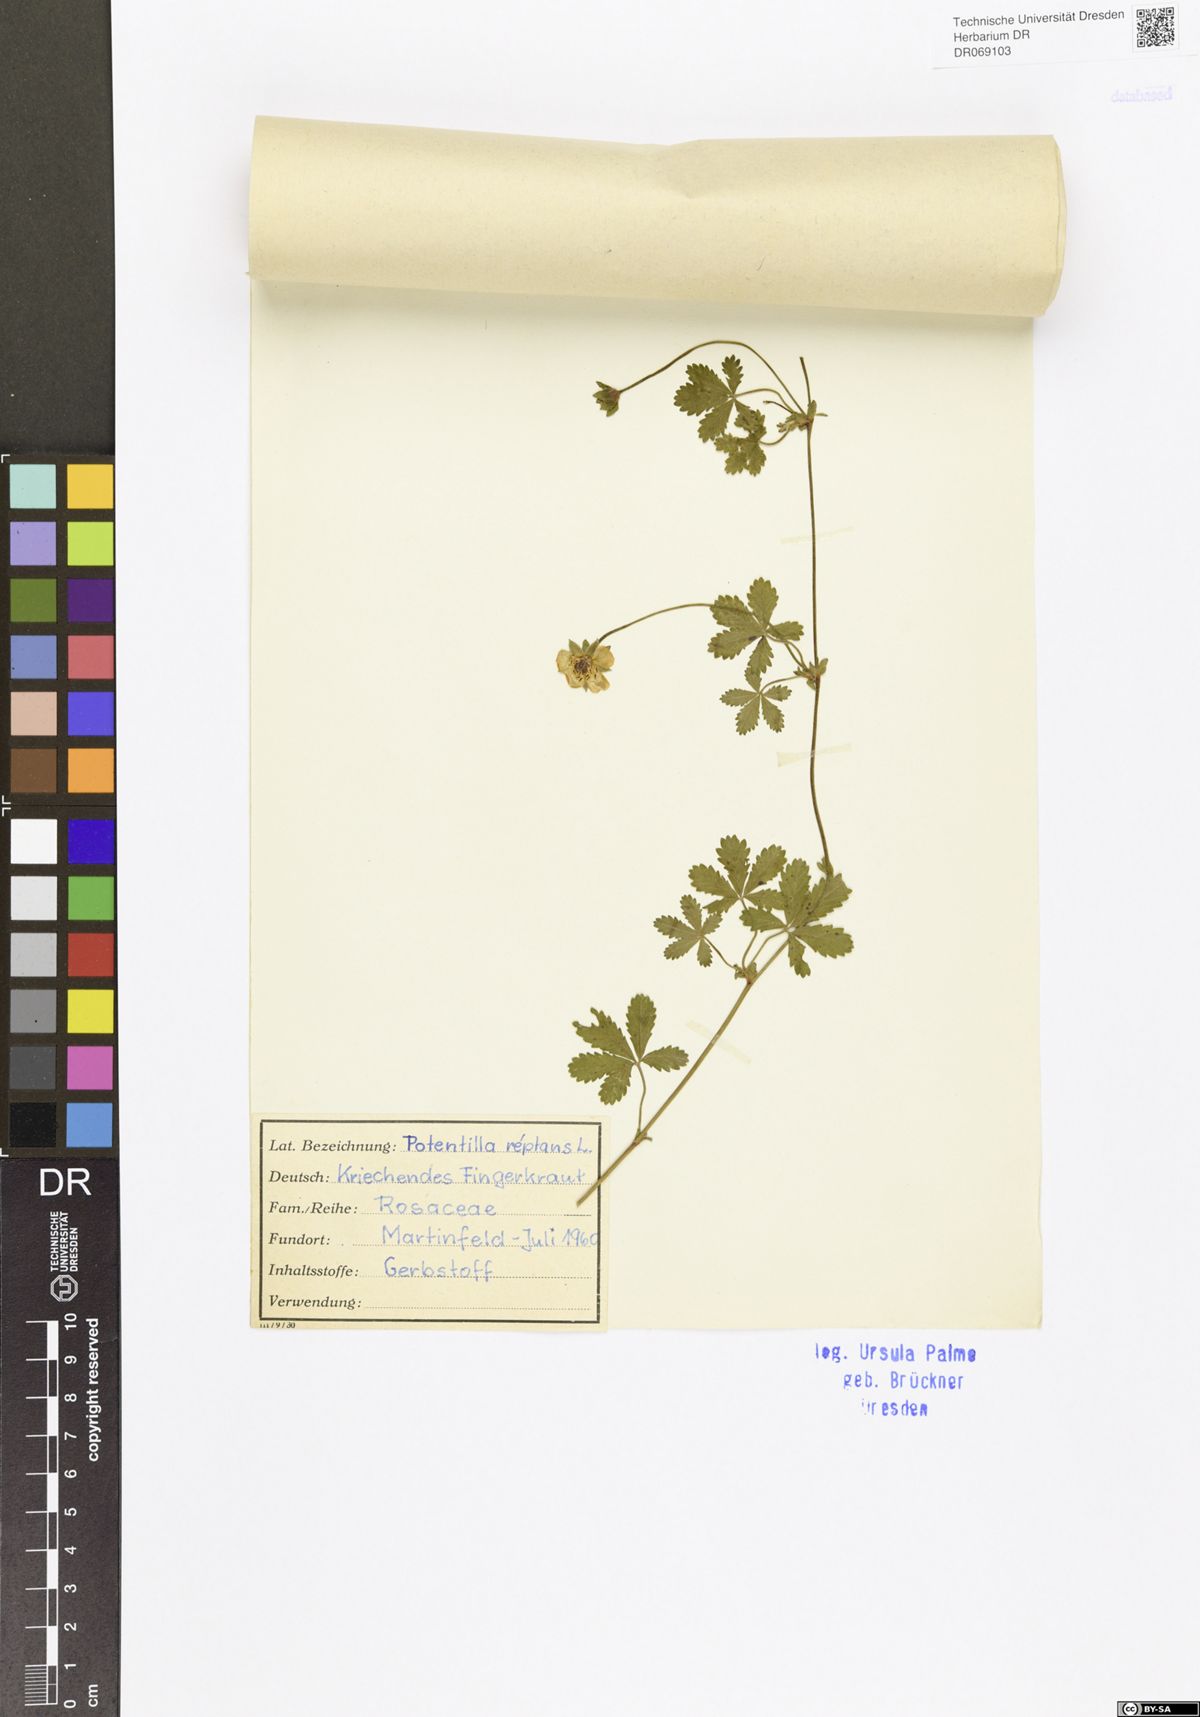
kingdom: Plantae
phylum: Tracheophyta
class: Magnoliopsida
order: Rosales
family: Rosaceae
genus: Potentilla
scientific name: Potentilla reptans
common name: Creeping cinquefoil
